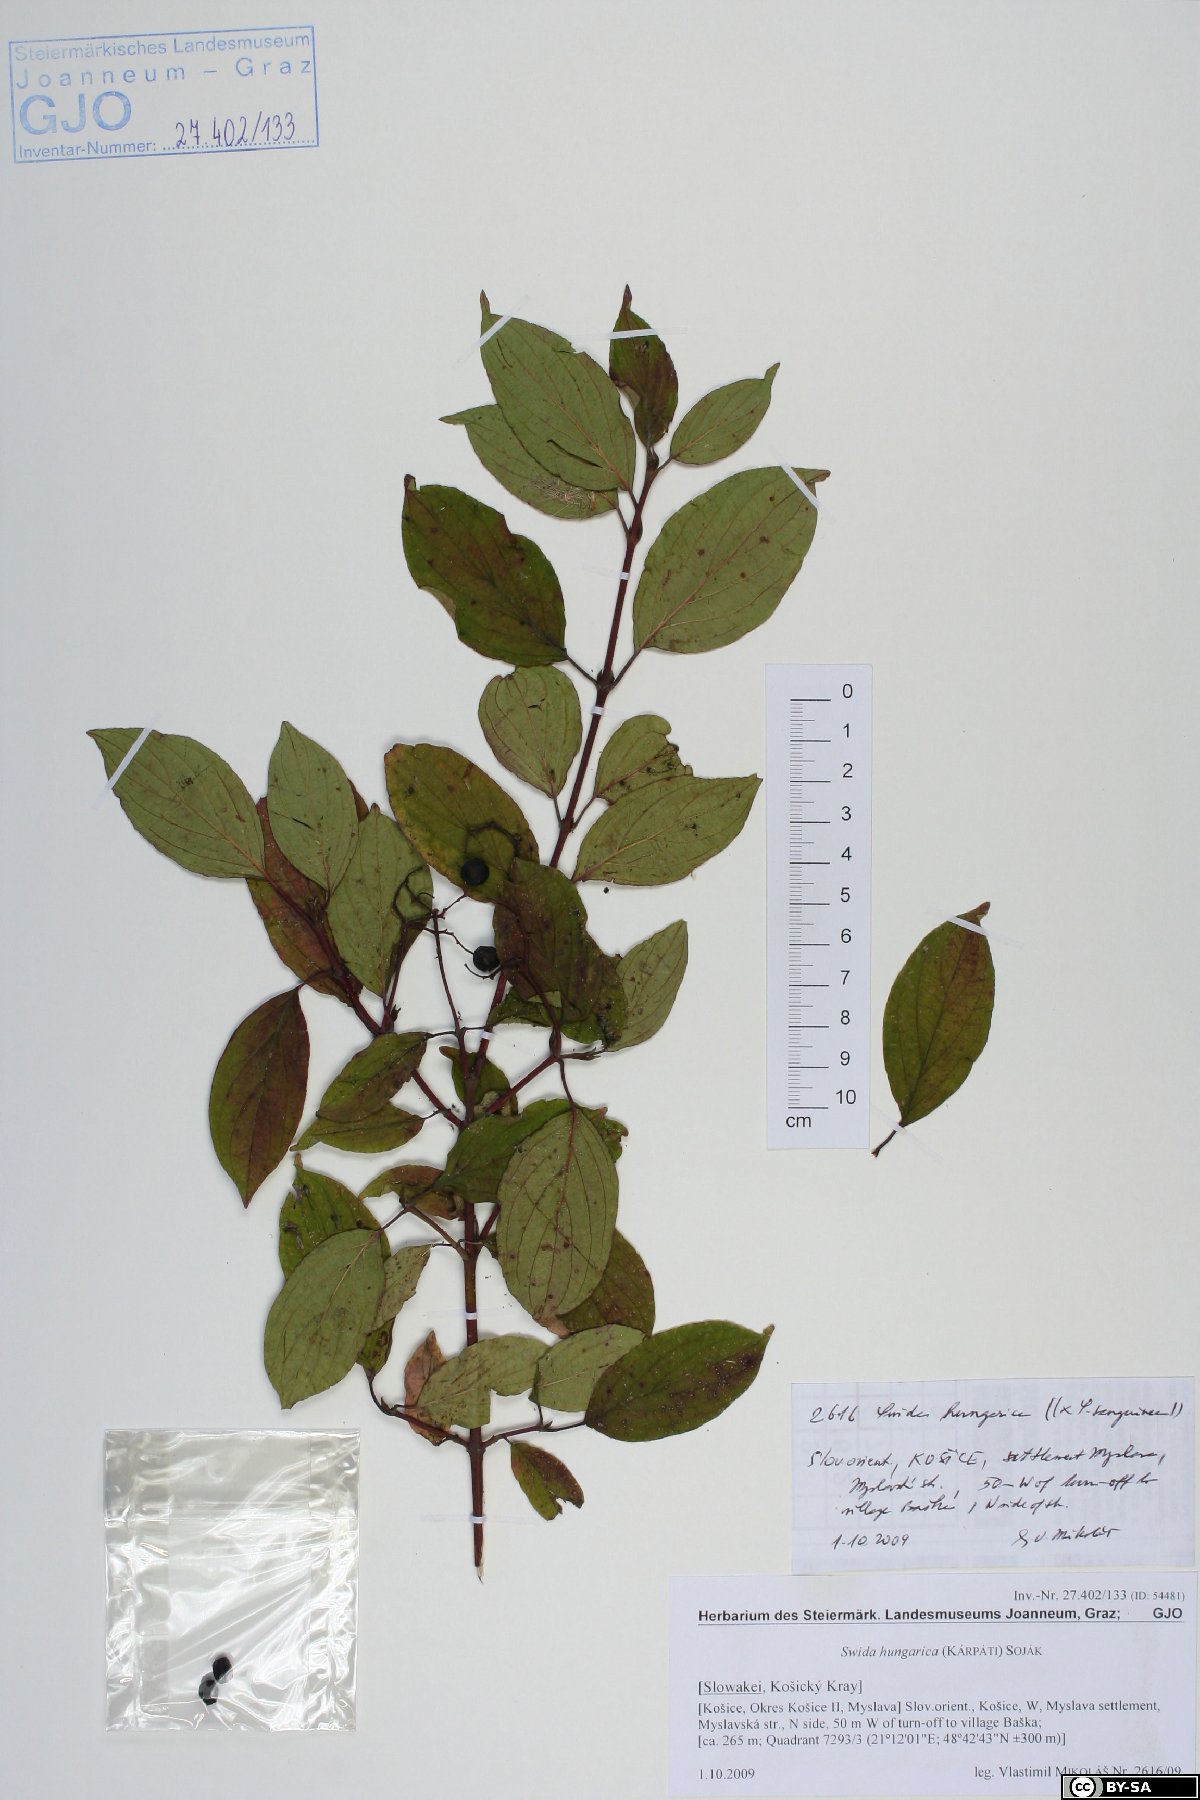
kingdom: Plantae
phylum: Tracheophyta
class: Magnoliopsida
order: Cornales
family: Cornaceae
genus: Cornus
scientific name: Cornus sanguinea
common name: Dogwood
